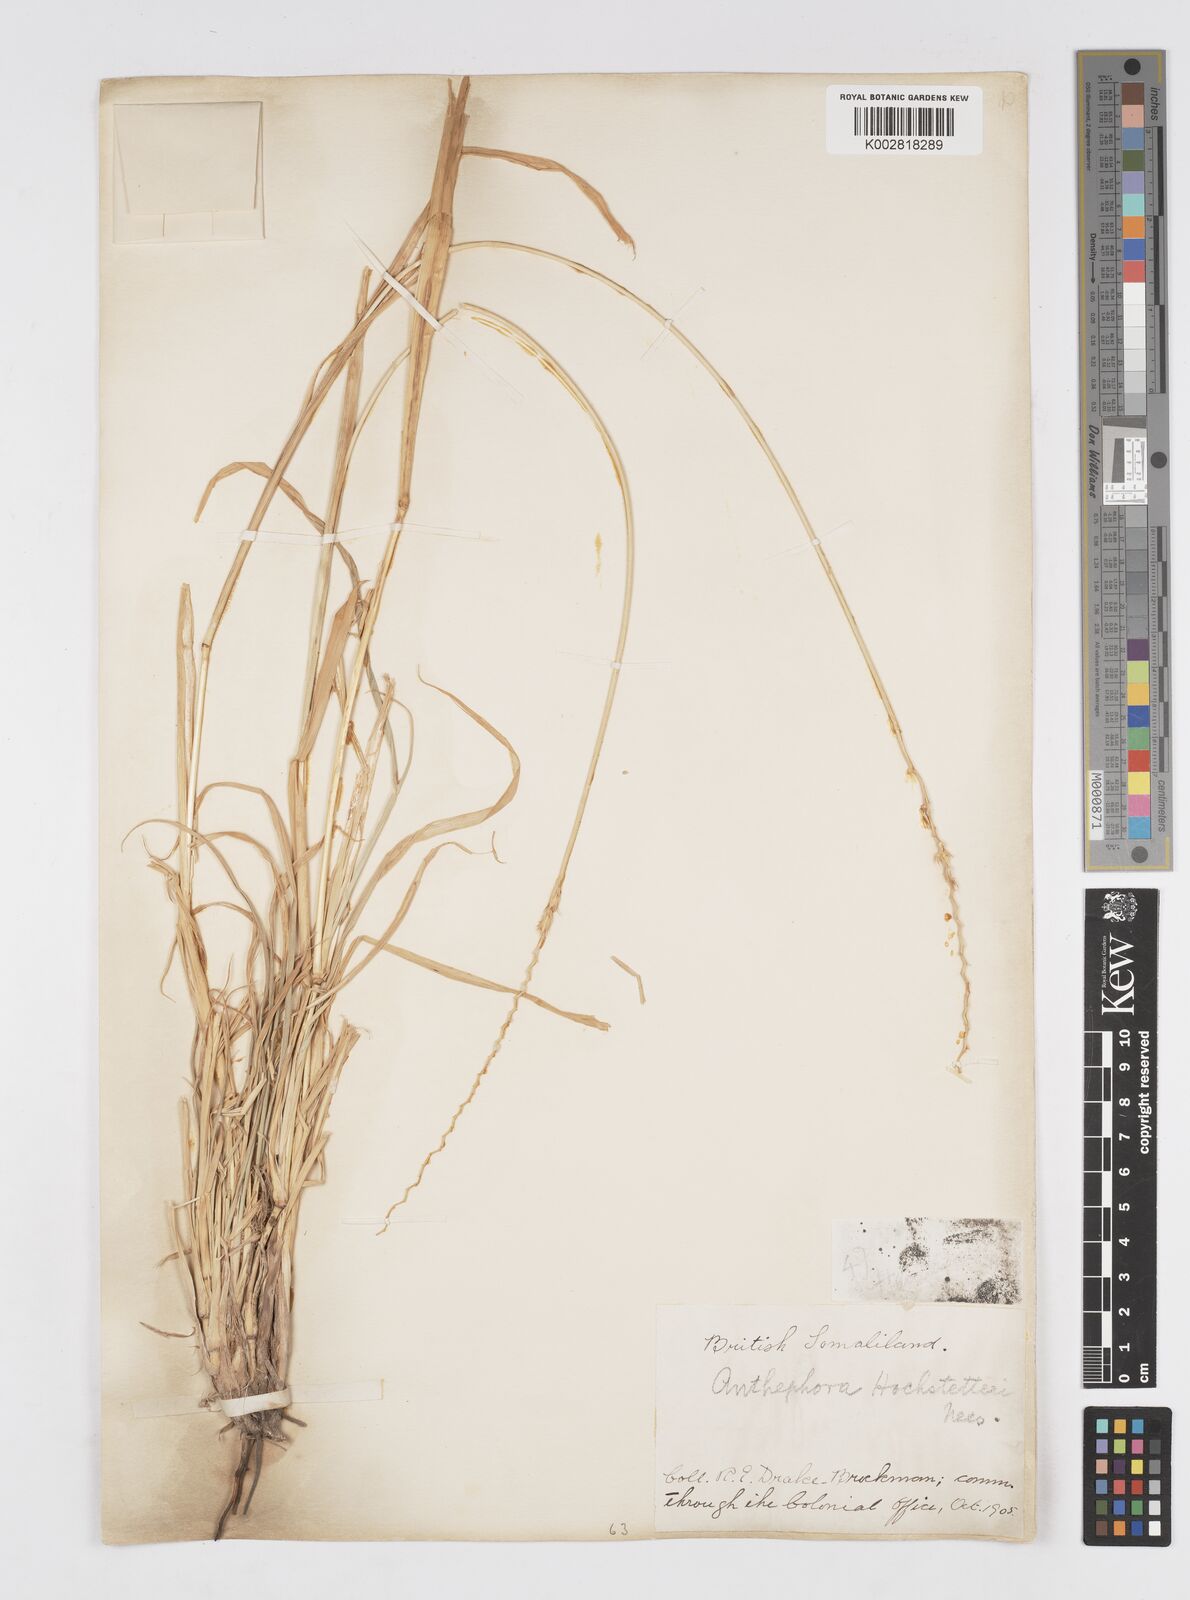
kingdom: Plantae
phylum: Tracheophyta
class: Liliopsida
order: Poales
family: Poaceae
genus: Anthephora
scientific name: Anthephora pubescens
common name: Wool grass
